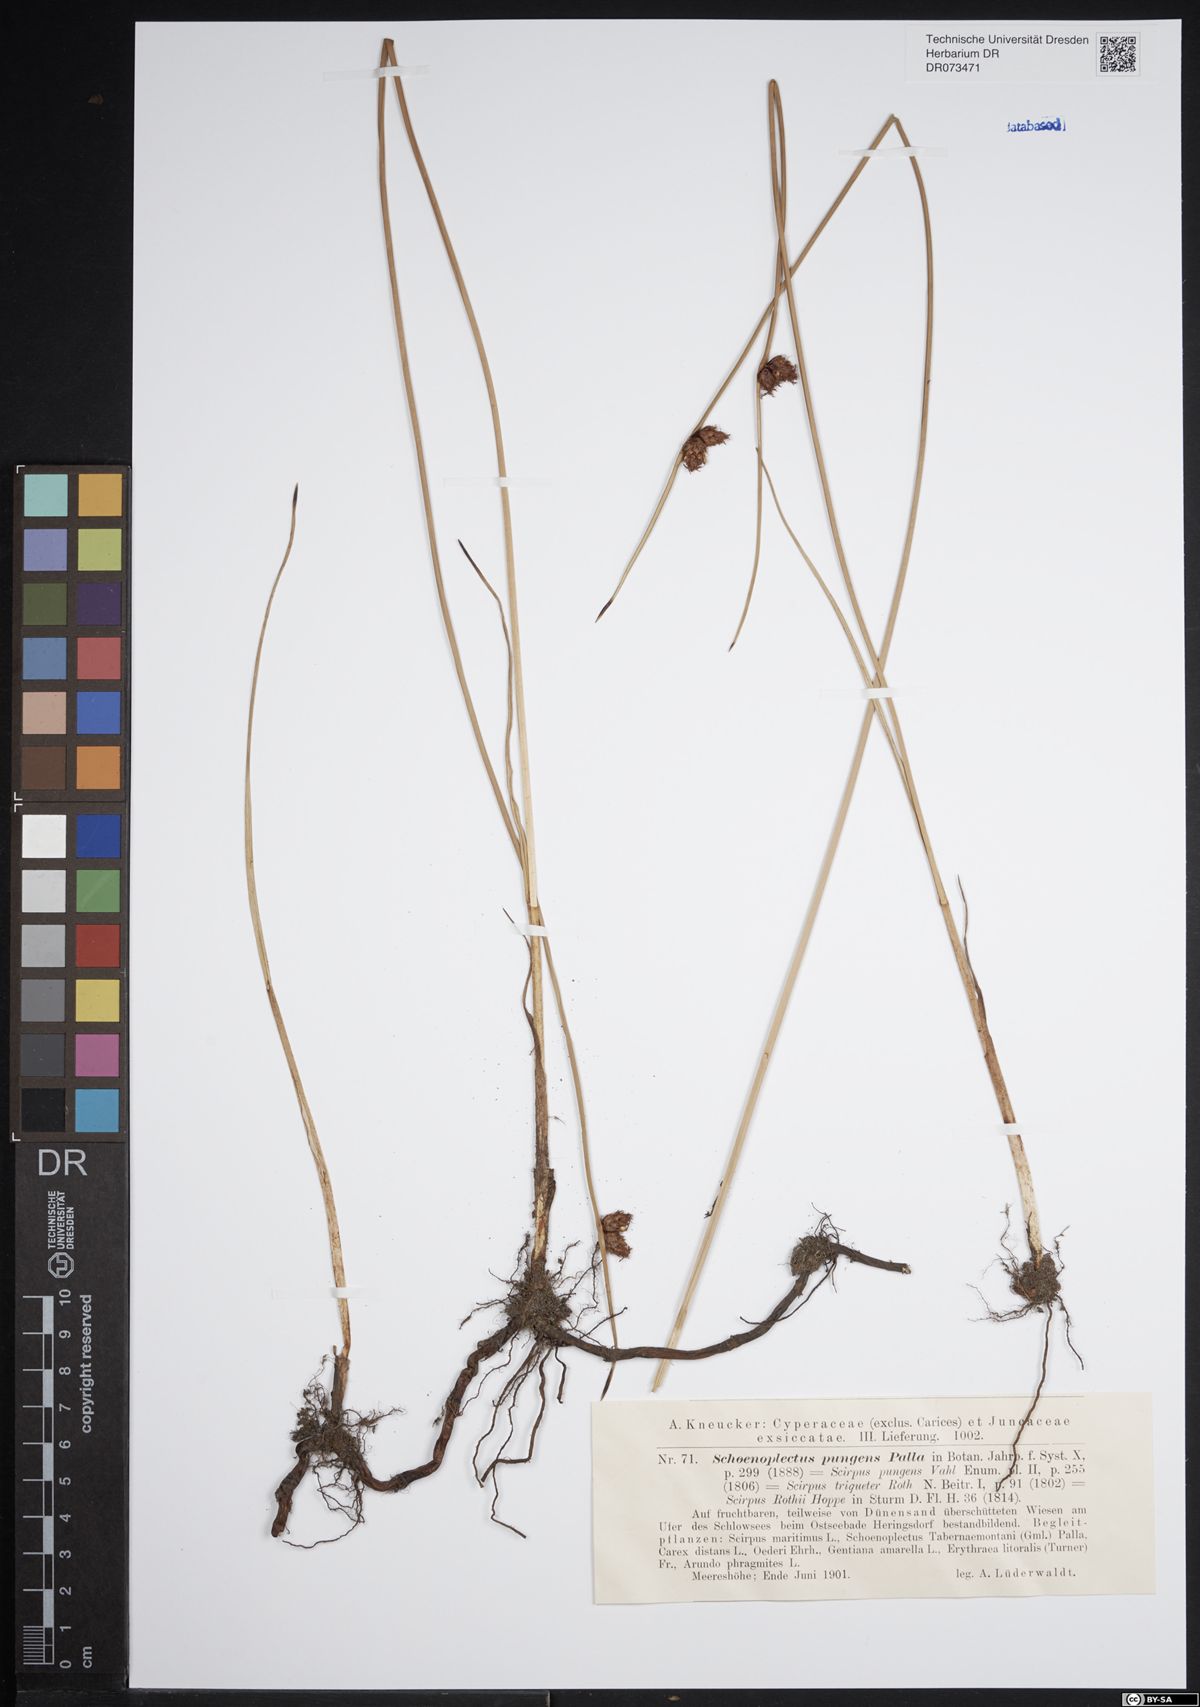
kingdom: Plantae
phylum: Tracheophyta
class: Liliopsida
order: Poales
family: Cyperaceae
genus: Schoenoplectus
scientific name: Schoenoplectus pungens
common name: Sharp club-rush
